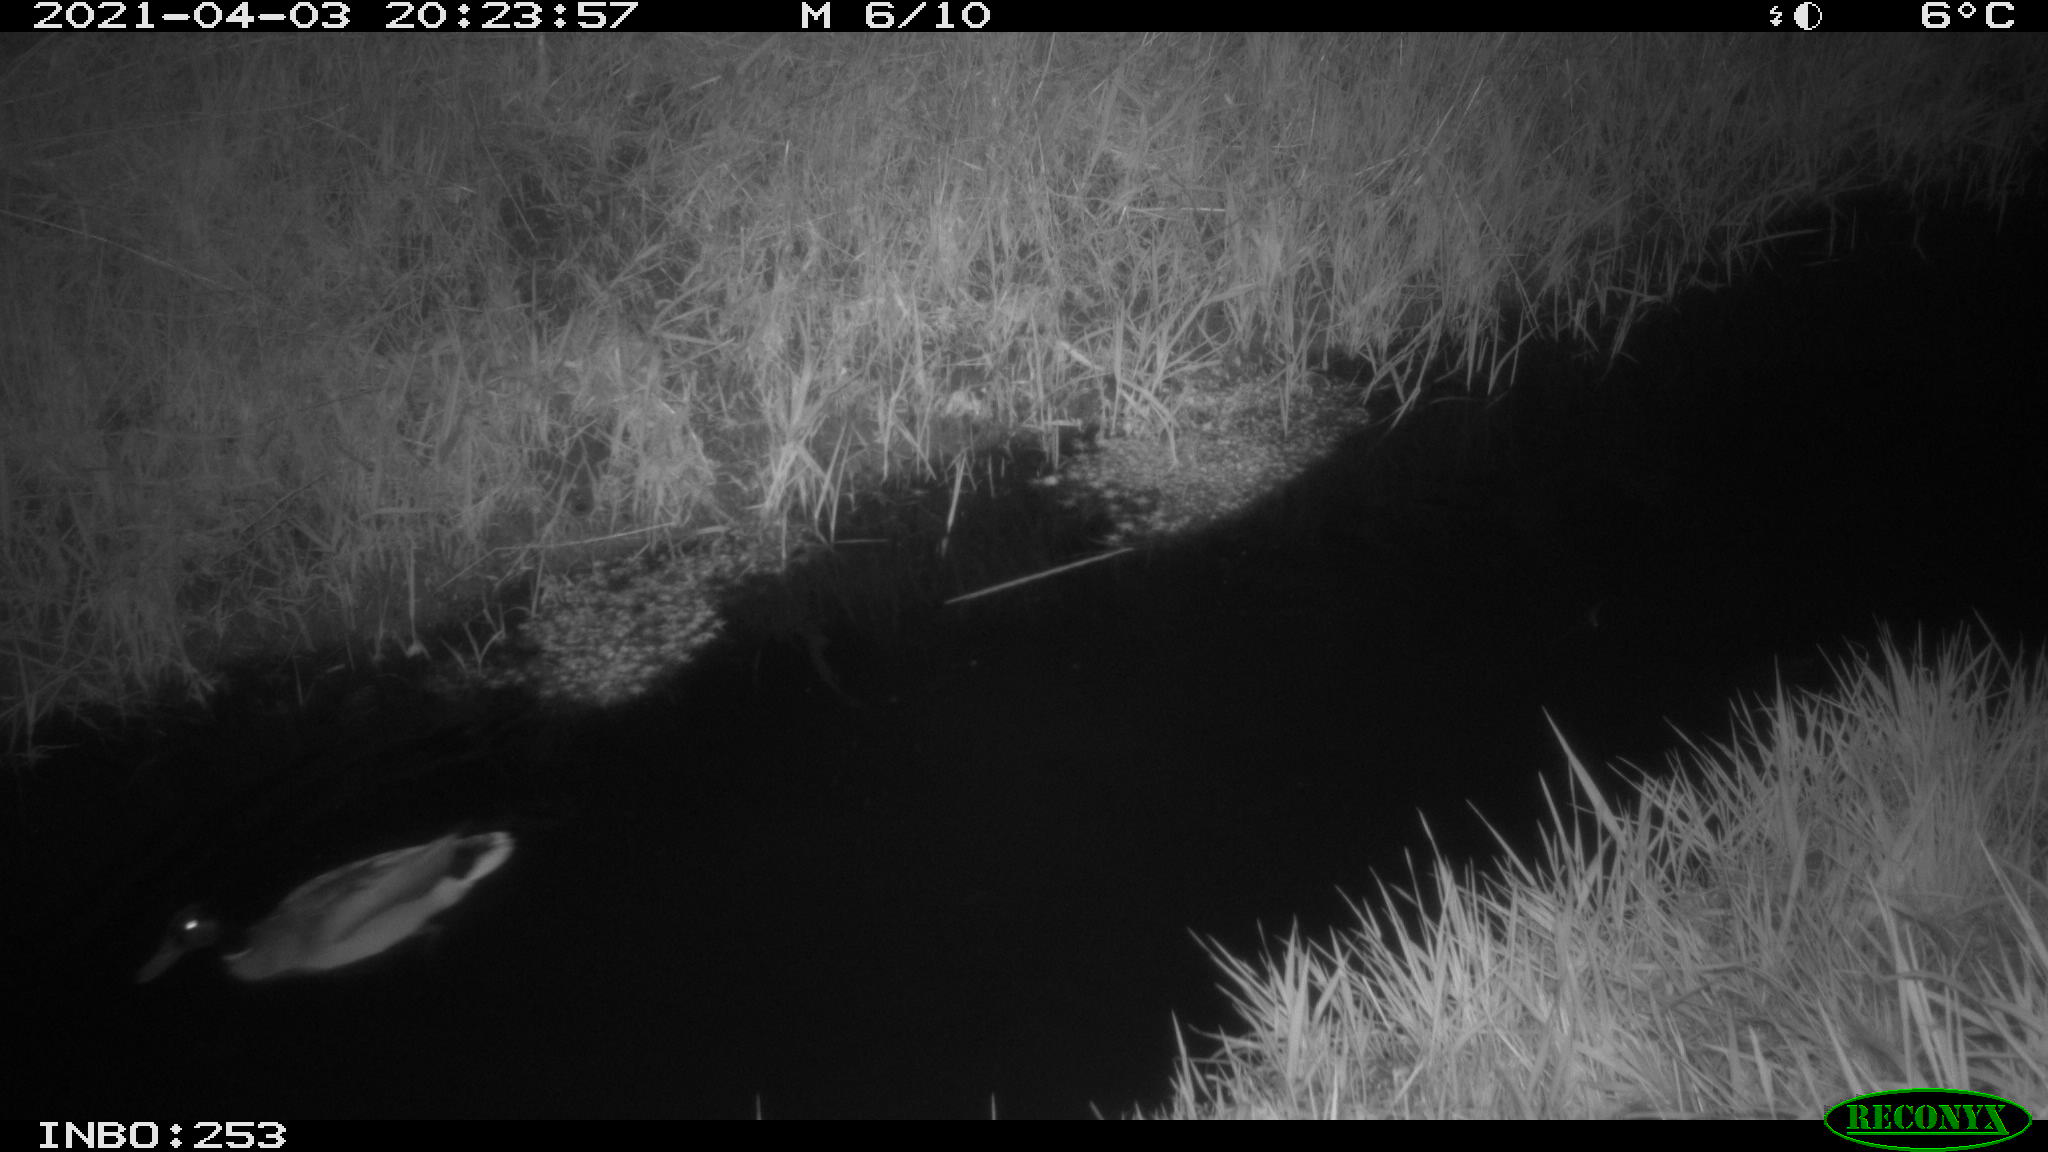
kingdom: Animalia
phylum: Chordata
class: Aves
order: Anseriformes
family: Anatidae
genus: Anas
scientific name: Anas platyrhynchos
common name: Mallard
